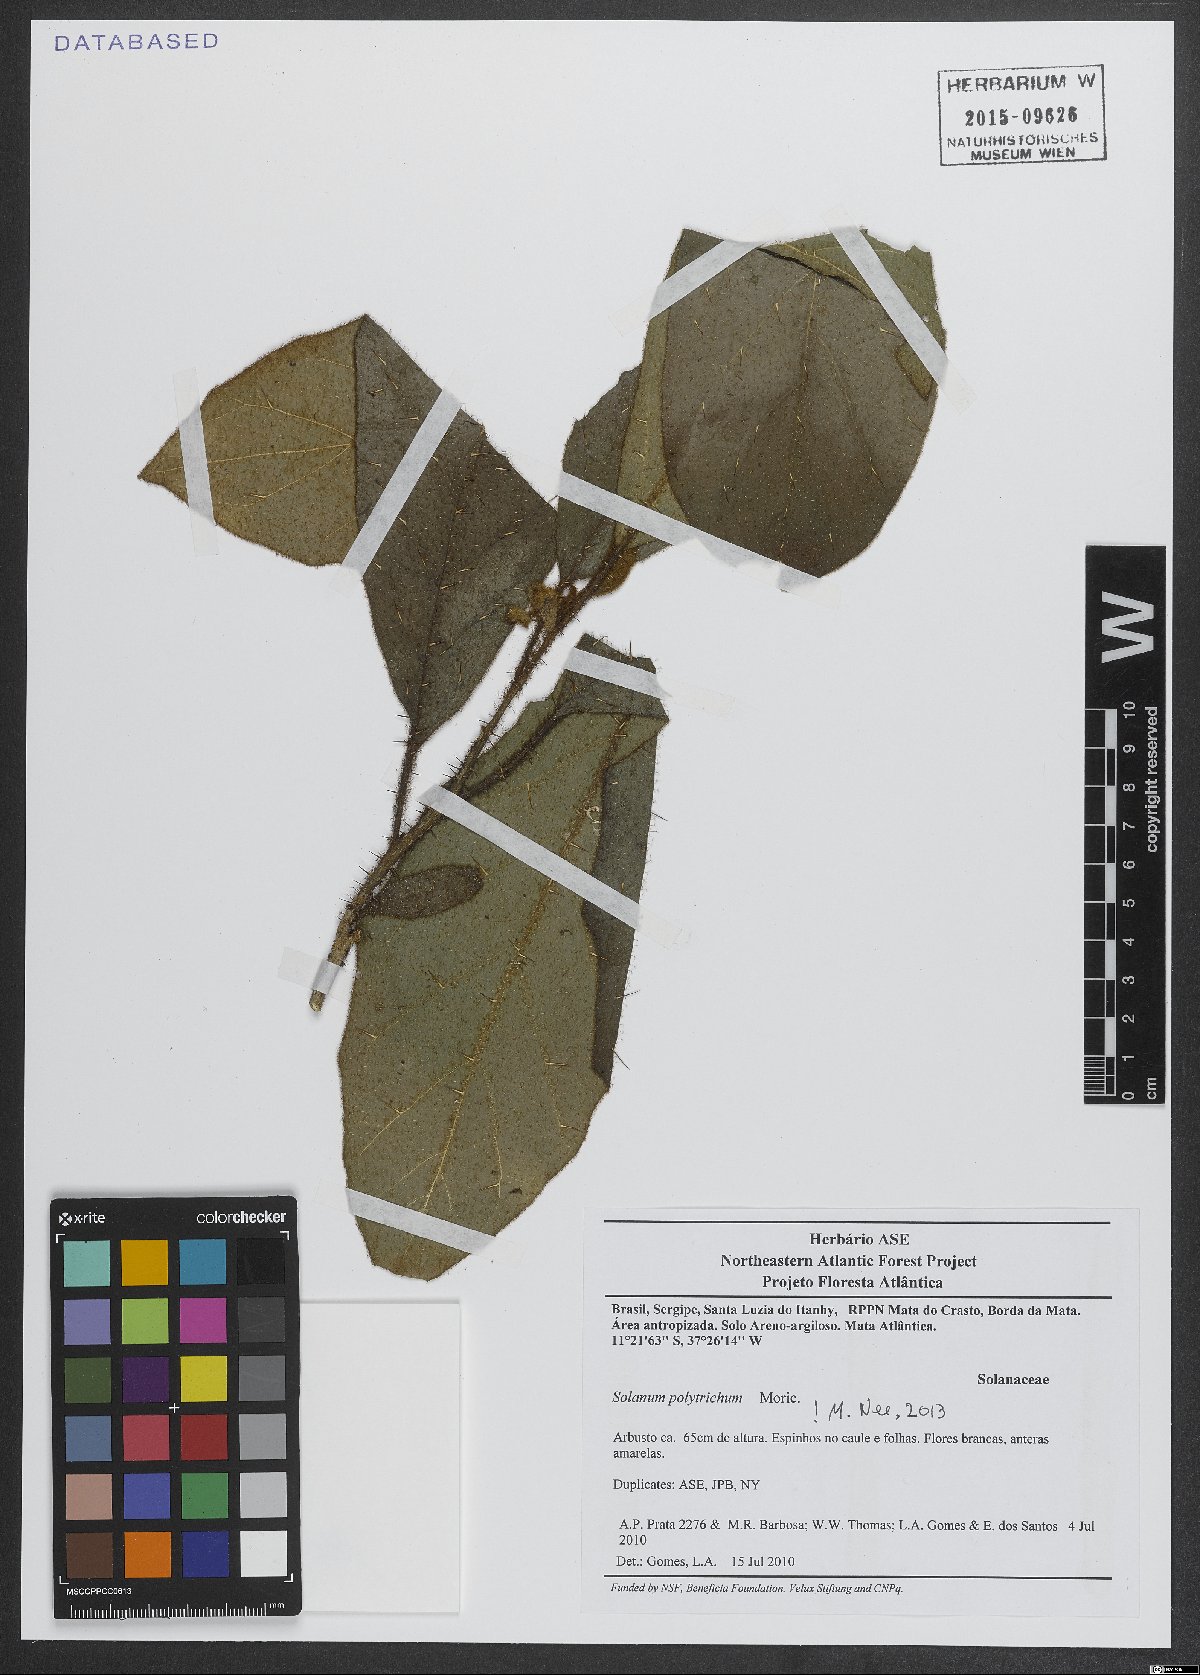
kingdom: Plantae
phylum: Tracheophyta
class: Magnoliopsida
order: Solanales
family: Solanaceae
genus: Solanum
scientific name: Solanum polytrichum
